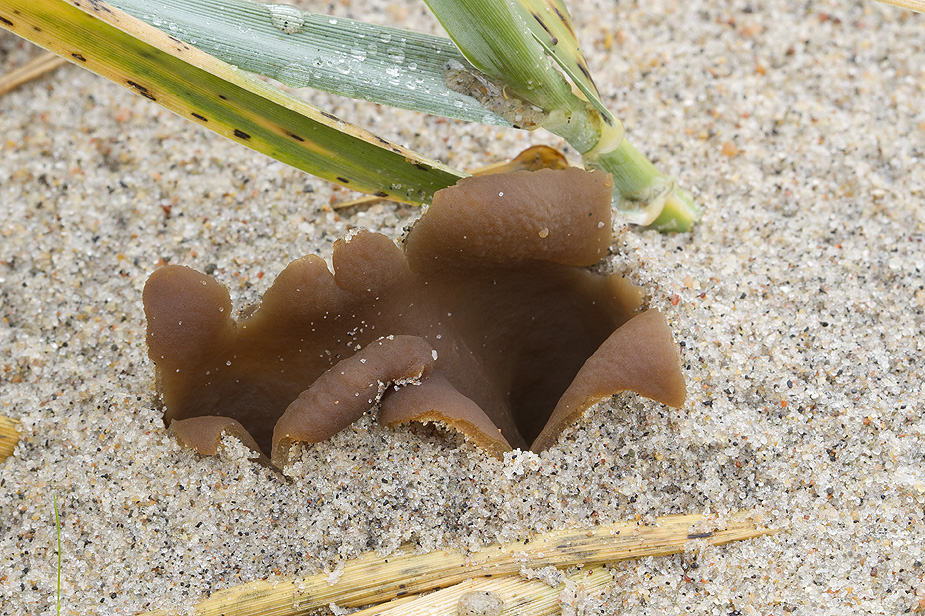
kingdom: Fungi
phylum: Ascomycota
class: Pezizomycetes
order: Pezizales
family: Pyronemataceae
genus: Lamprospora
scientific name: Lamprospora ammophila
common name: klit-bægersvamp
